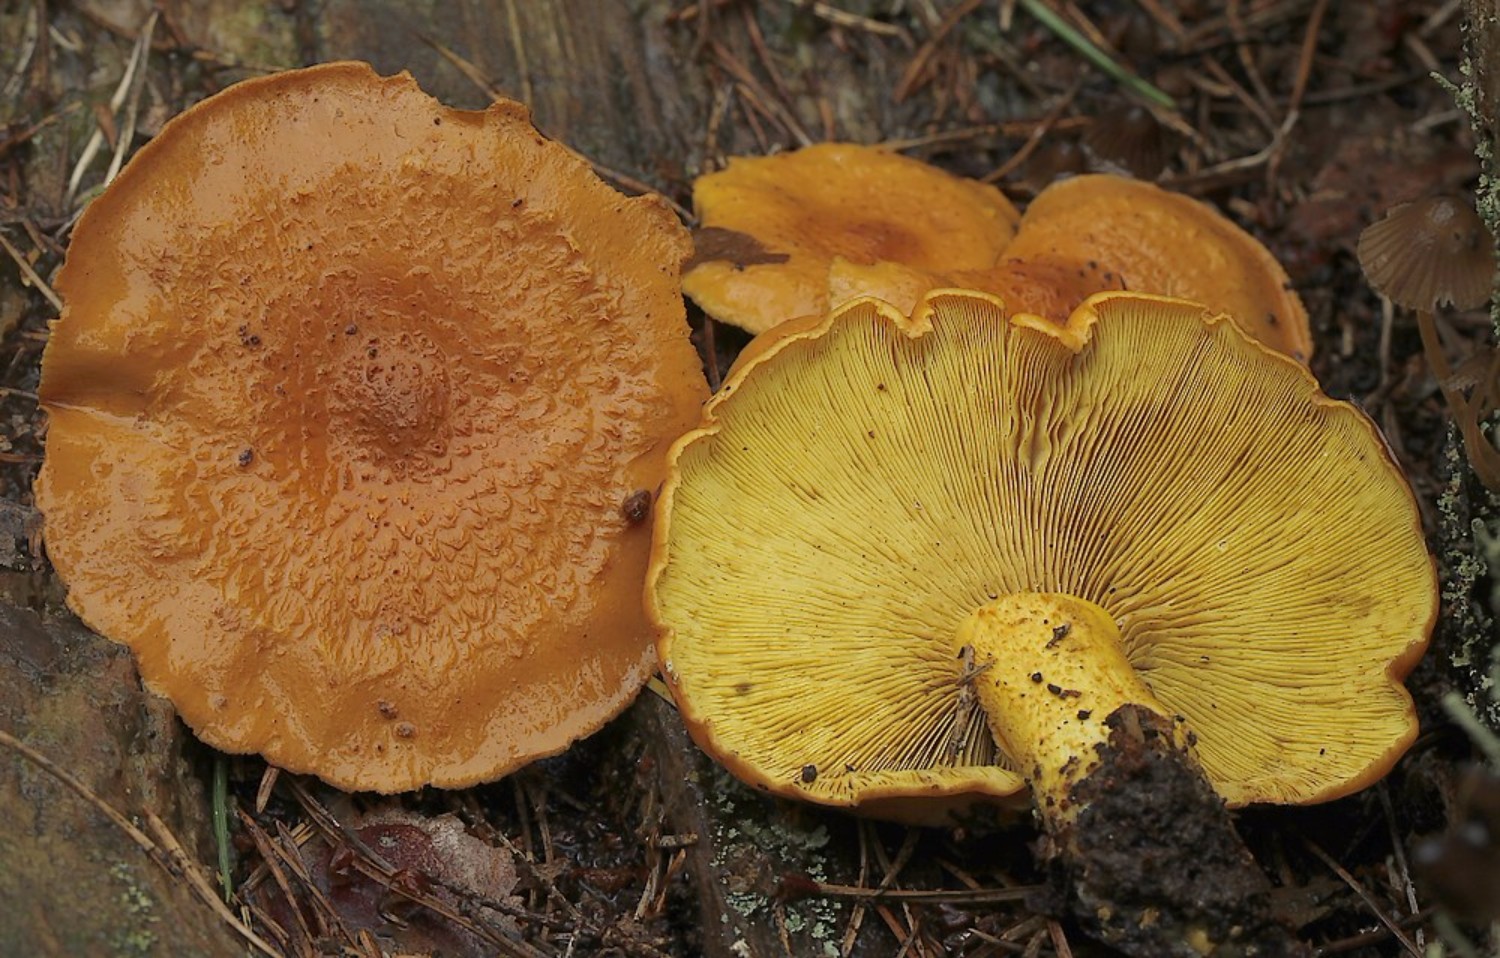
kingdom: Fungi
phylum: Basidiomycota
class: Agaricomycetes
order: Agaricales
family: Strophariaceae
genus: Pholiota
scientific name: Pholiota flammans
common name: flamme-skælhat
